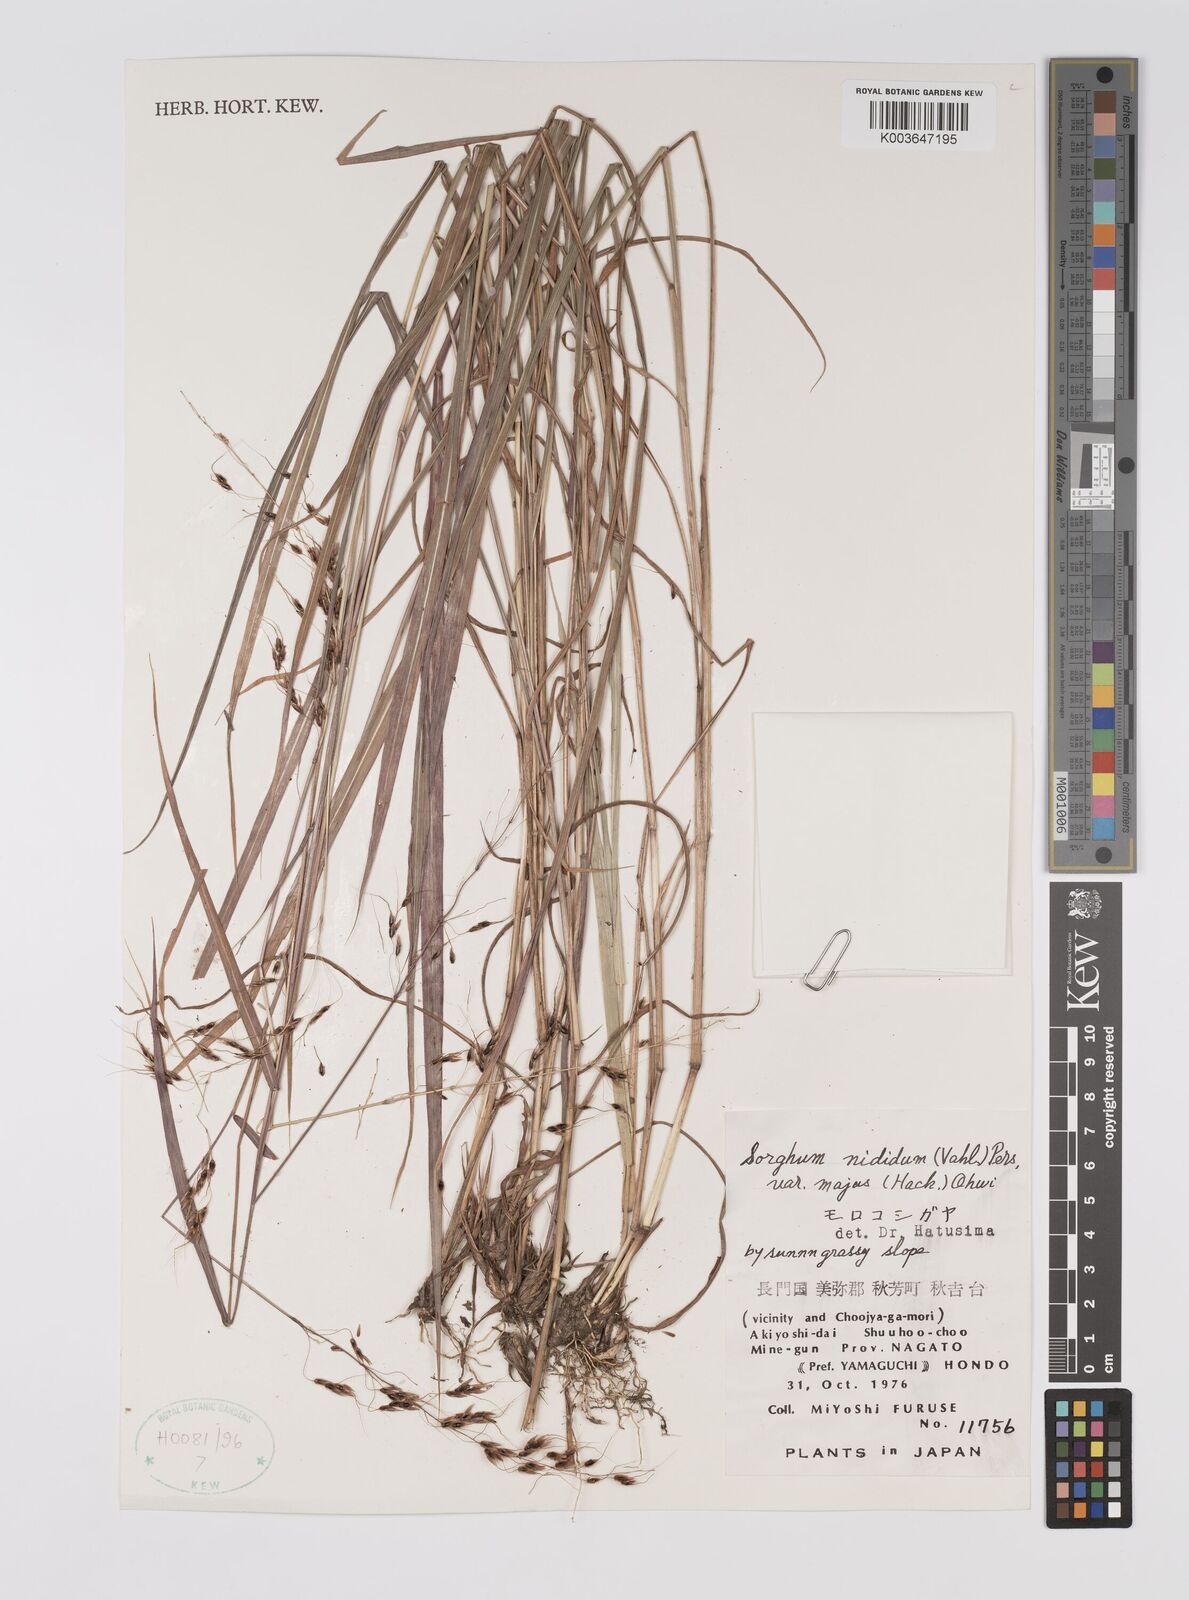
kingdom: Plantae
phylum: Tracheophyta
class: Liliopsida
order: Poales
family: Poaceae
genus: Sorghum
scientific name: Sorghum nitidum
